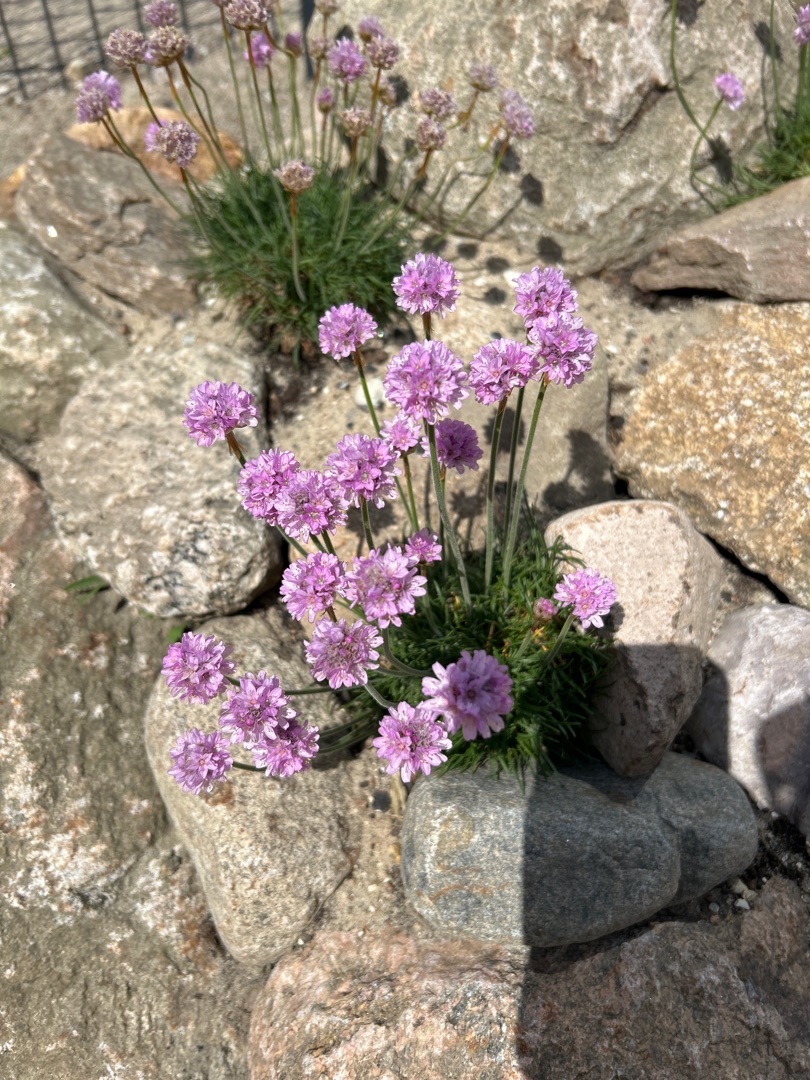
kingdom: Plantae
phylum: Tracheophyta
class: Magnoliopsida
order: Caryophyllales
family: Plumbaginaceae
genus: Armeria
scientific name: Armeria maritima
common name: Engelskgræs
